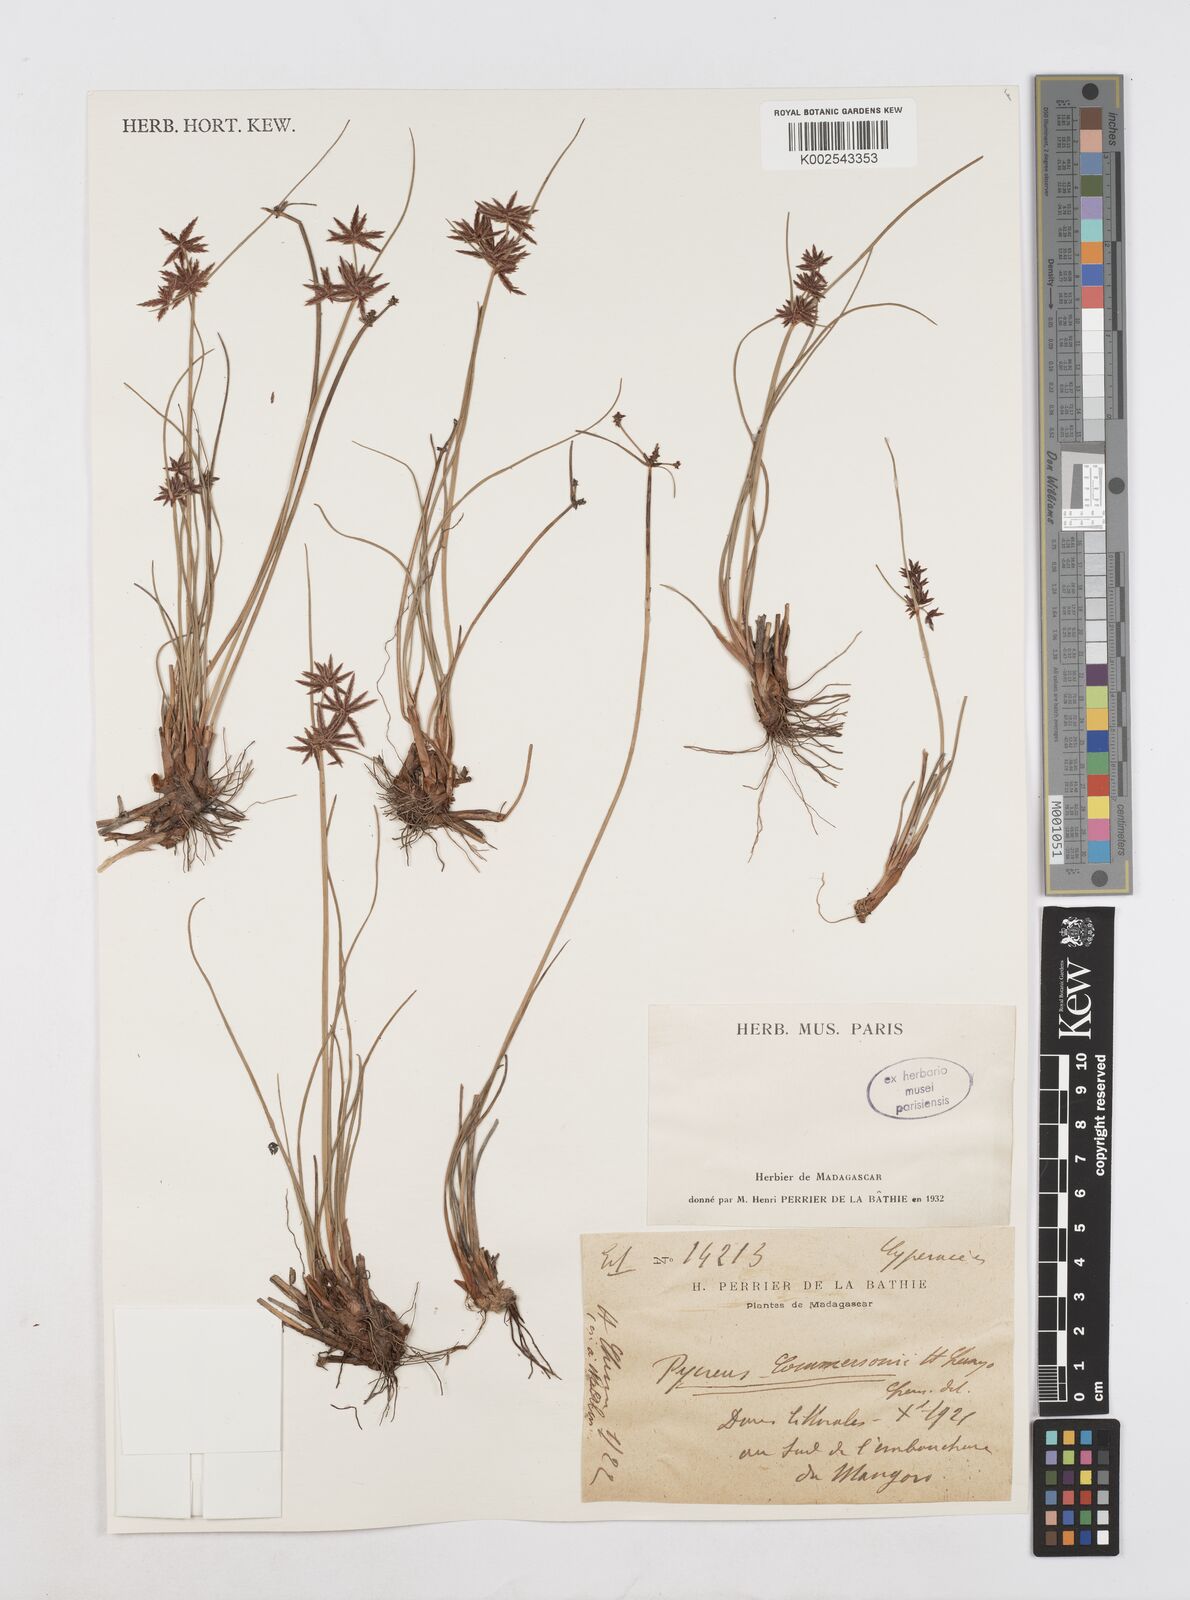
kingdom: Plantae
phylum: Tracheophyta
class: Liliopsida
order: Poales
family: Cyperaceae
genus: Cyperus
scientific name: Cyperus rhizomatosus
